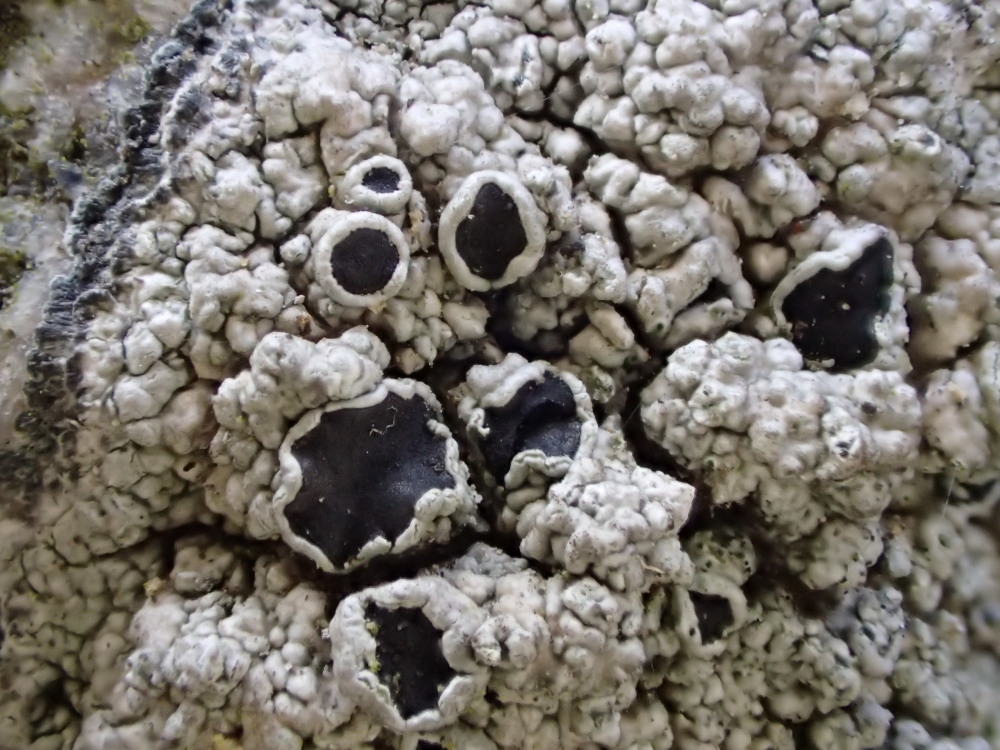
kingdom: Fungi
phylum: Ascomycota
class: Lecanoromycetes
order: Lecanorales
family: Tephromelataceae
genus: Tephromela
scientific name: Tephromela atra
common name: sortfrugtet kantskivelav
